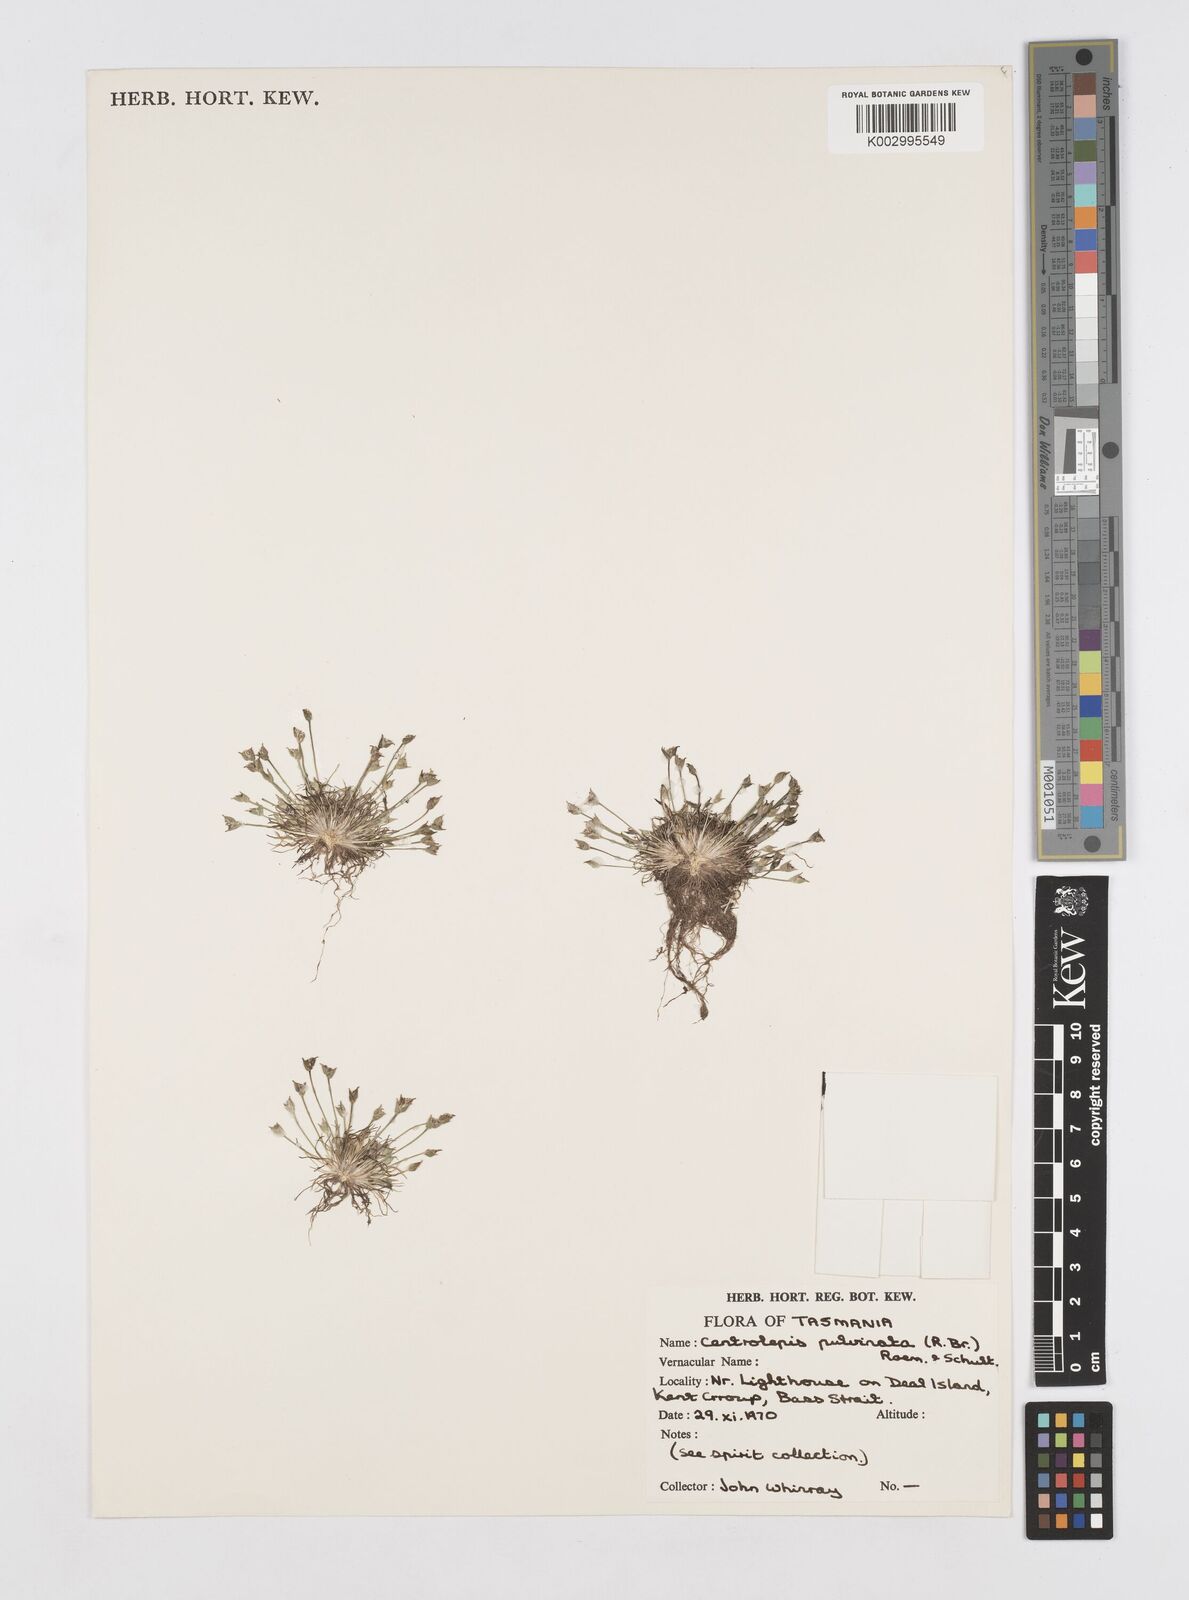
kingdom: Plantae
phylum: Tracheophyta
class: Liliopsida
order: Poales
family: Restionaceae
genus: Centrolepis
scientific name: Centrolepis strigosa
